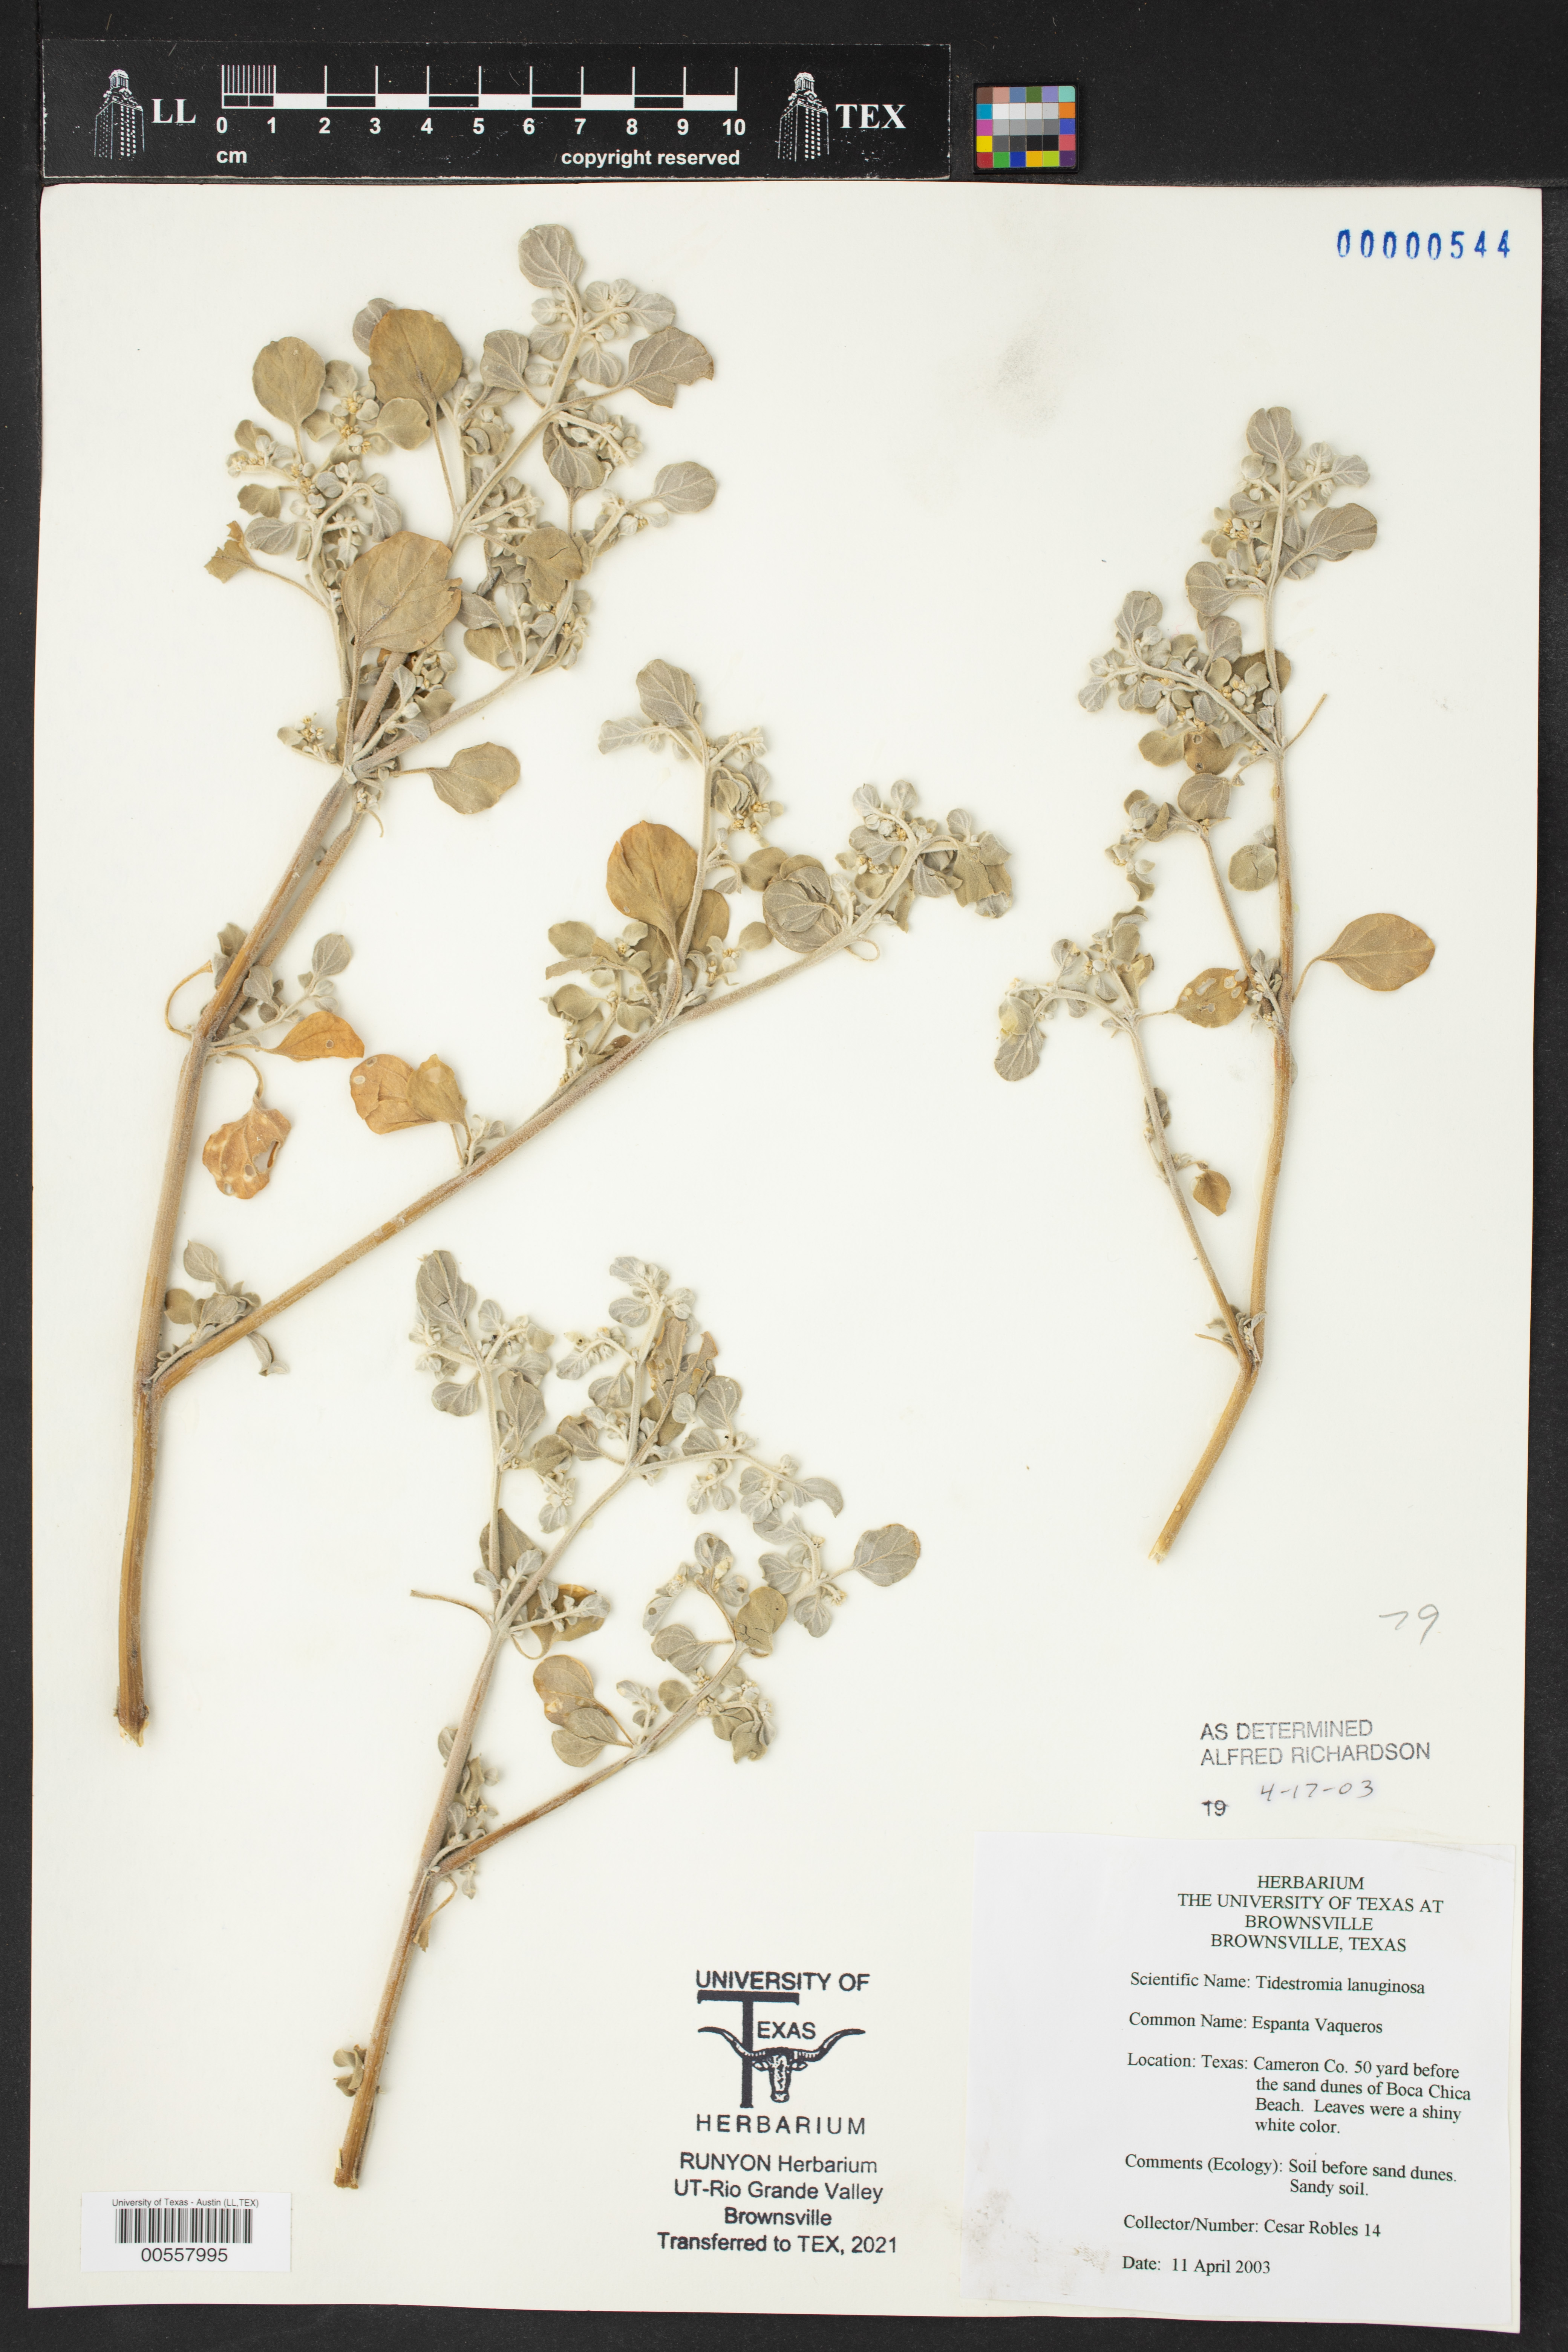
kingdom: Plantae
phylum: Tracheophyta
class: Magnoliopsida
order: Caryophyllales
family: Amaranthaceae
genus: Tidestromia
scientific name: Tidestromia lanuginosa
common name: Woolly tidestromia
